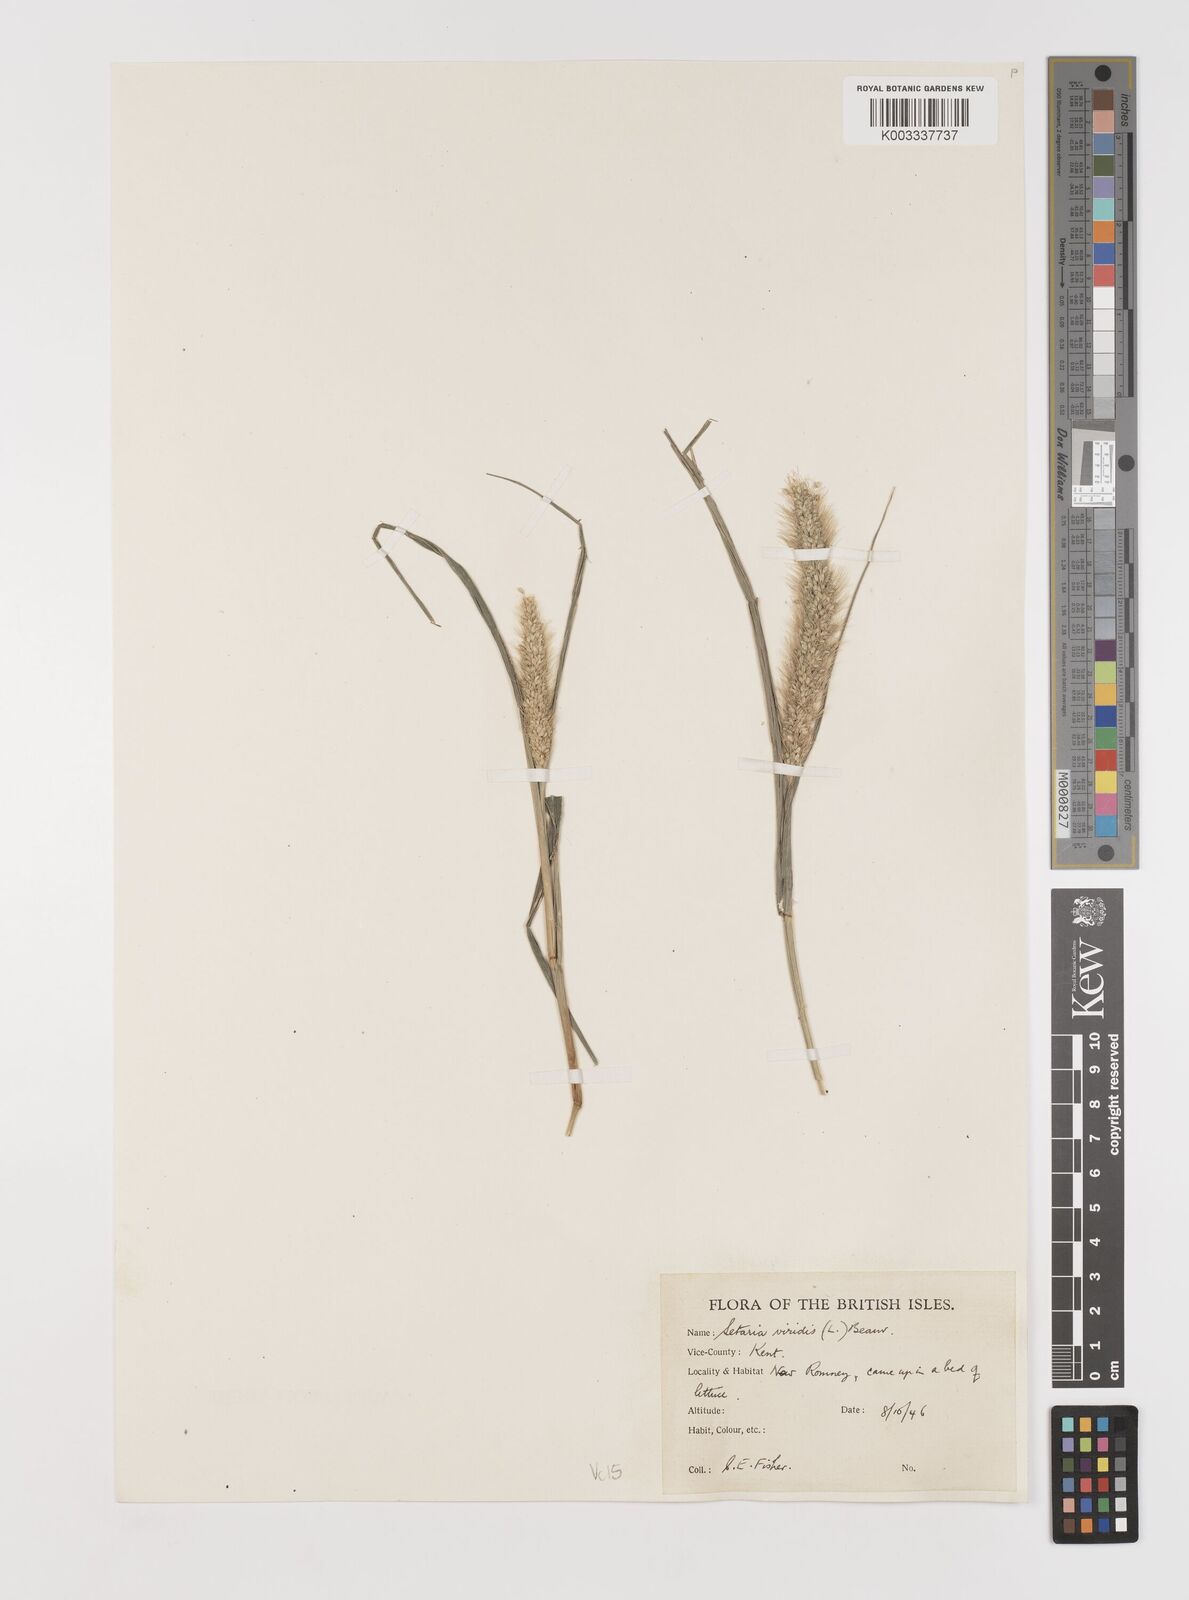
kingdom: Plantae
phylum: Tracheophyta
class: Liliopsida
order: Poales
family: Poaceae
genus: Setaria
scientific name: Setaria viridis
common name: Green bristlegrass
